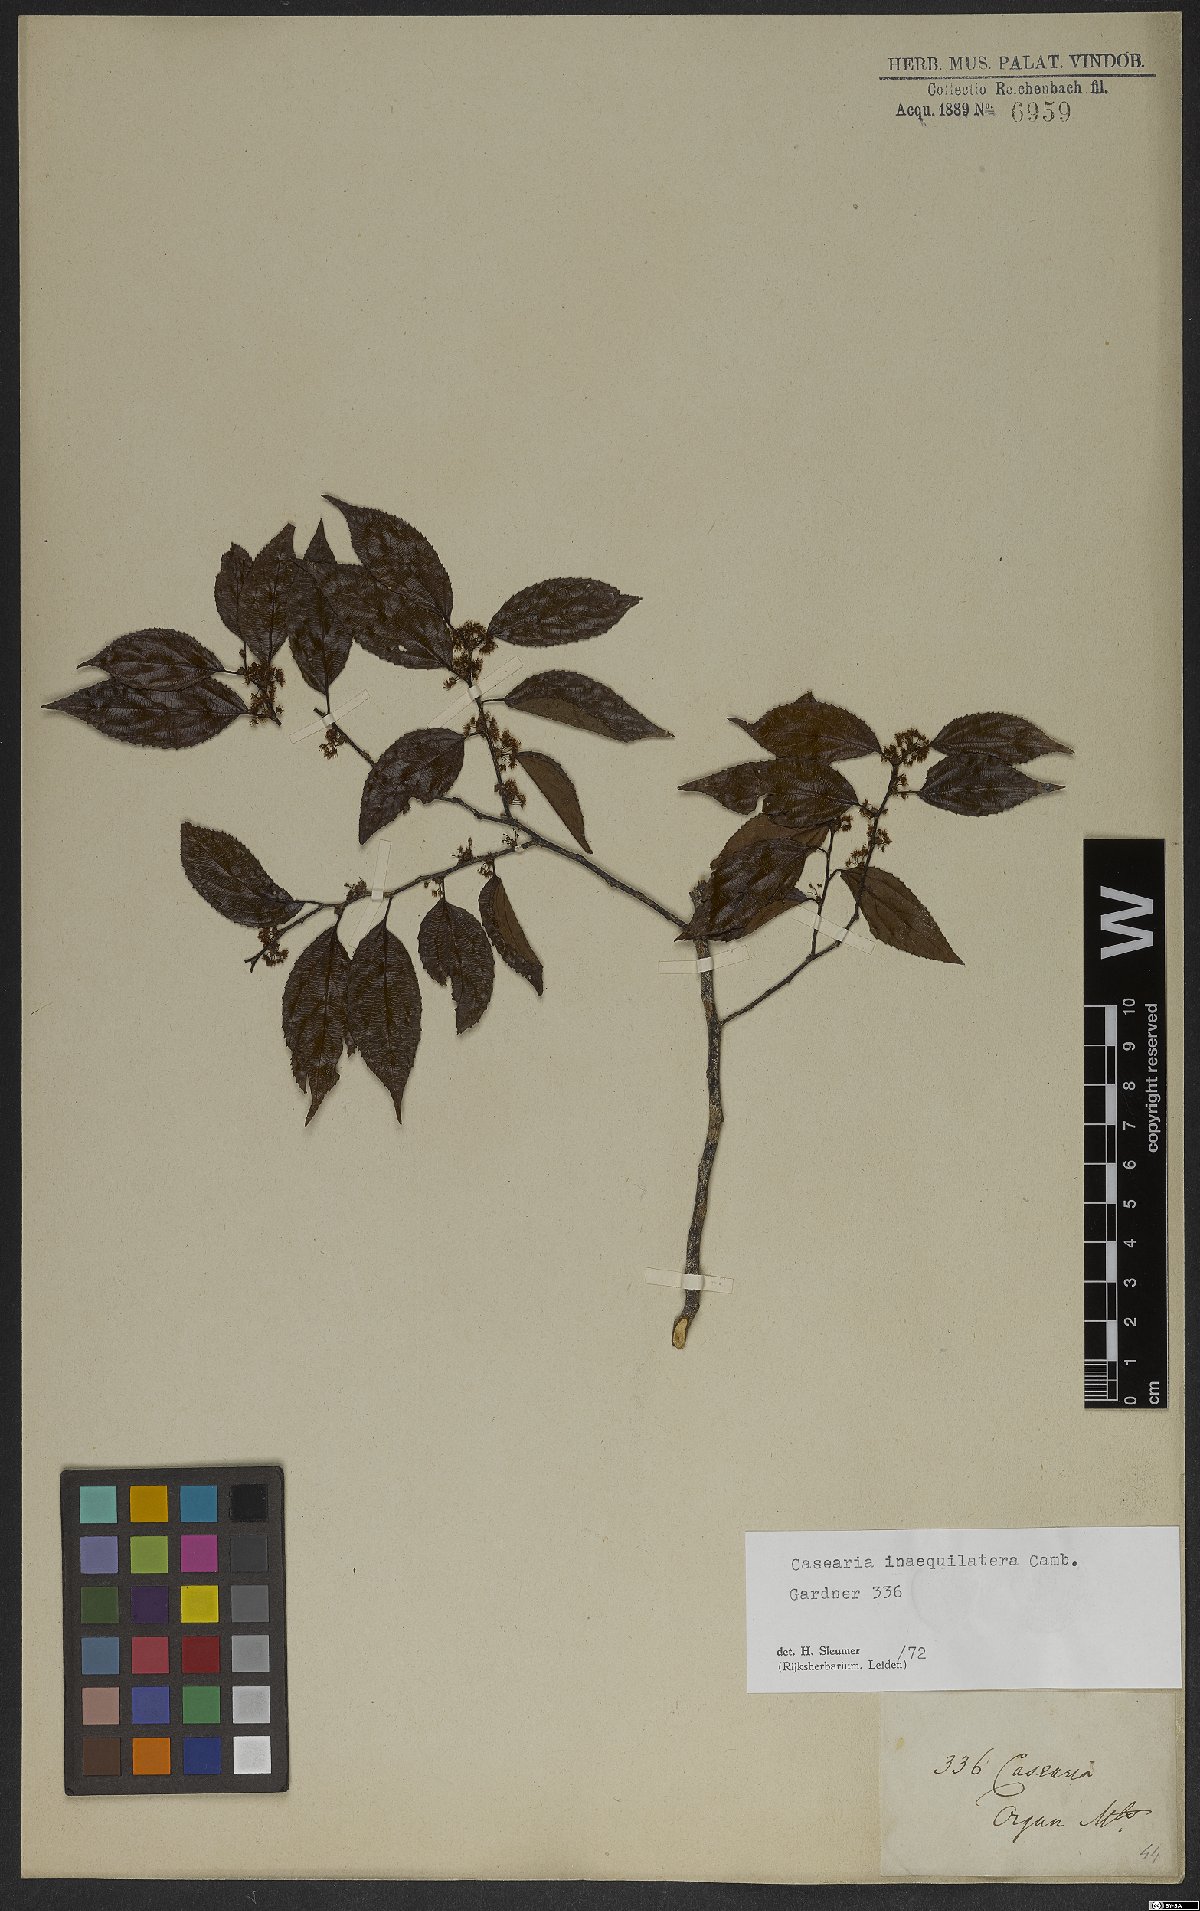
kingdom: Plantae
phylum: Tracheophyta
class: Magnoliopsida
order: Malpighiales
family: Salicaceae
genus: Casearia
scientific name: Casearia obliqua
